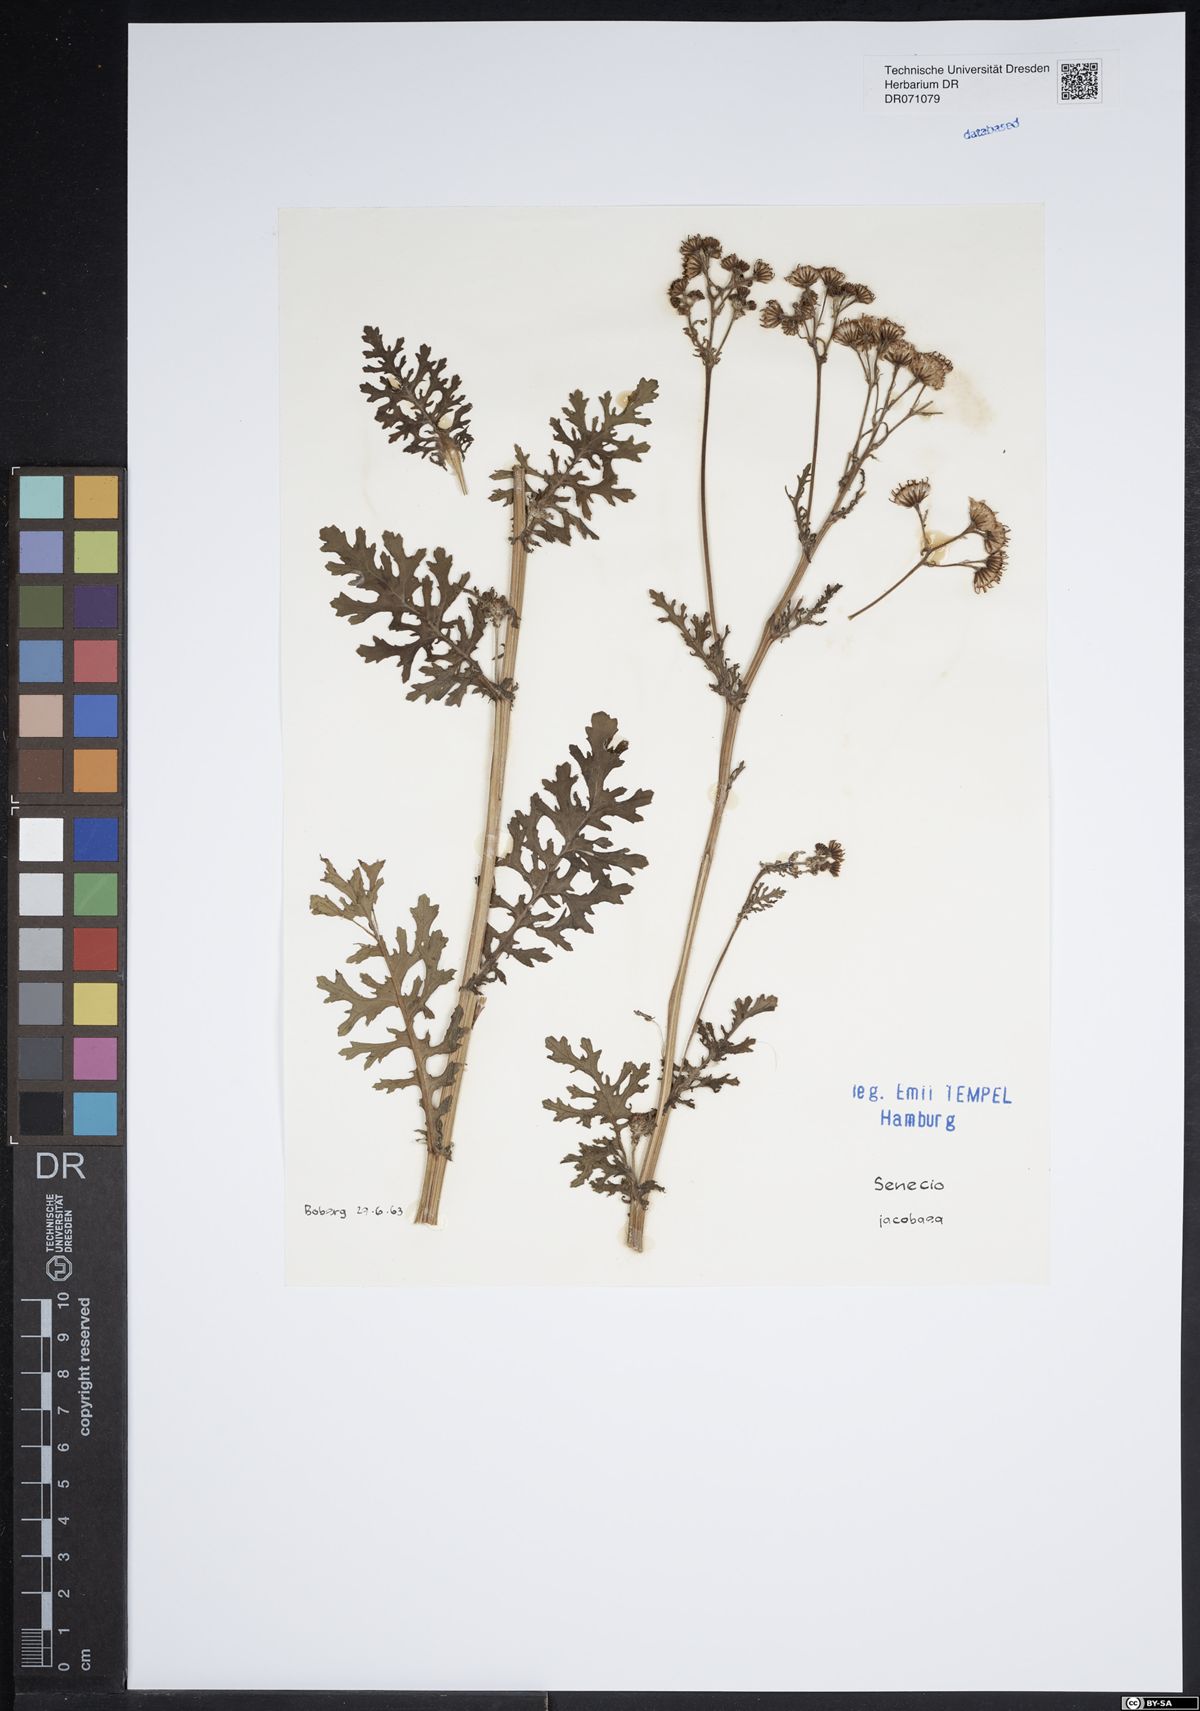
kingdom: Plantae
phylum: Tracheophyta
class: Magnoliopsida
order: Asterales
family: Asteraceae
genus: Jacobaea
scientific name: Jacobaea vulgaris
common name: Stinking willie
